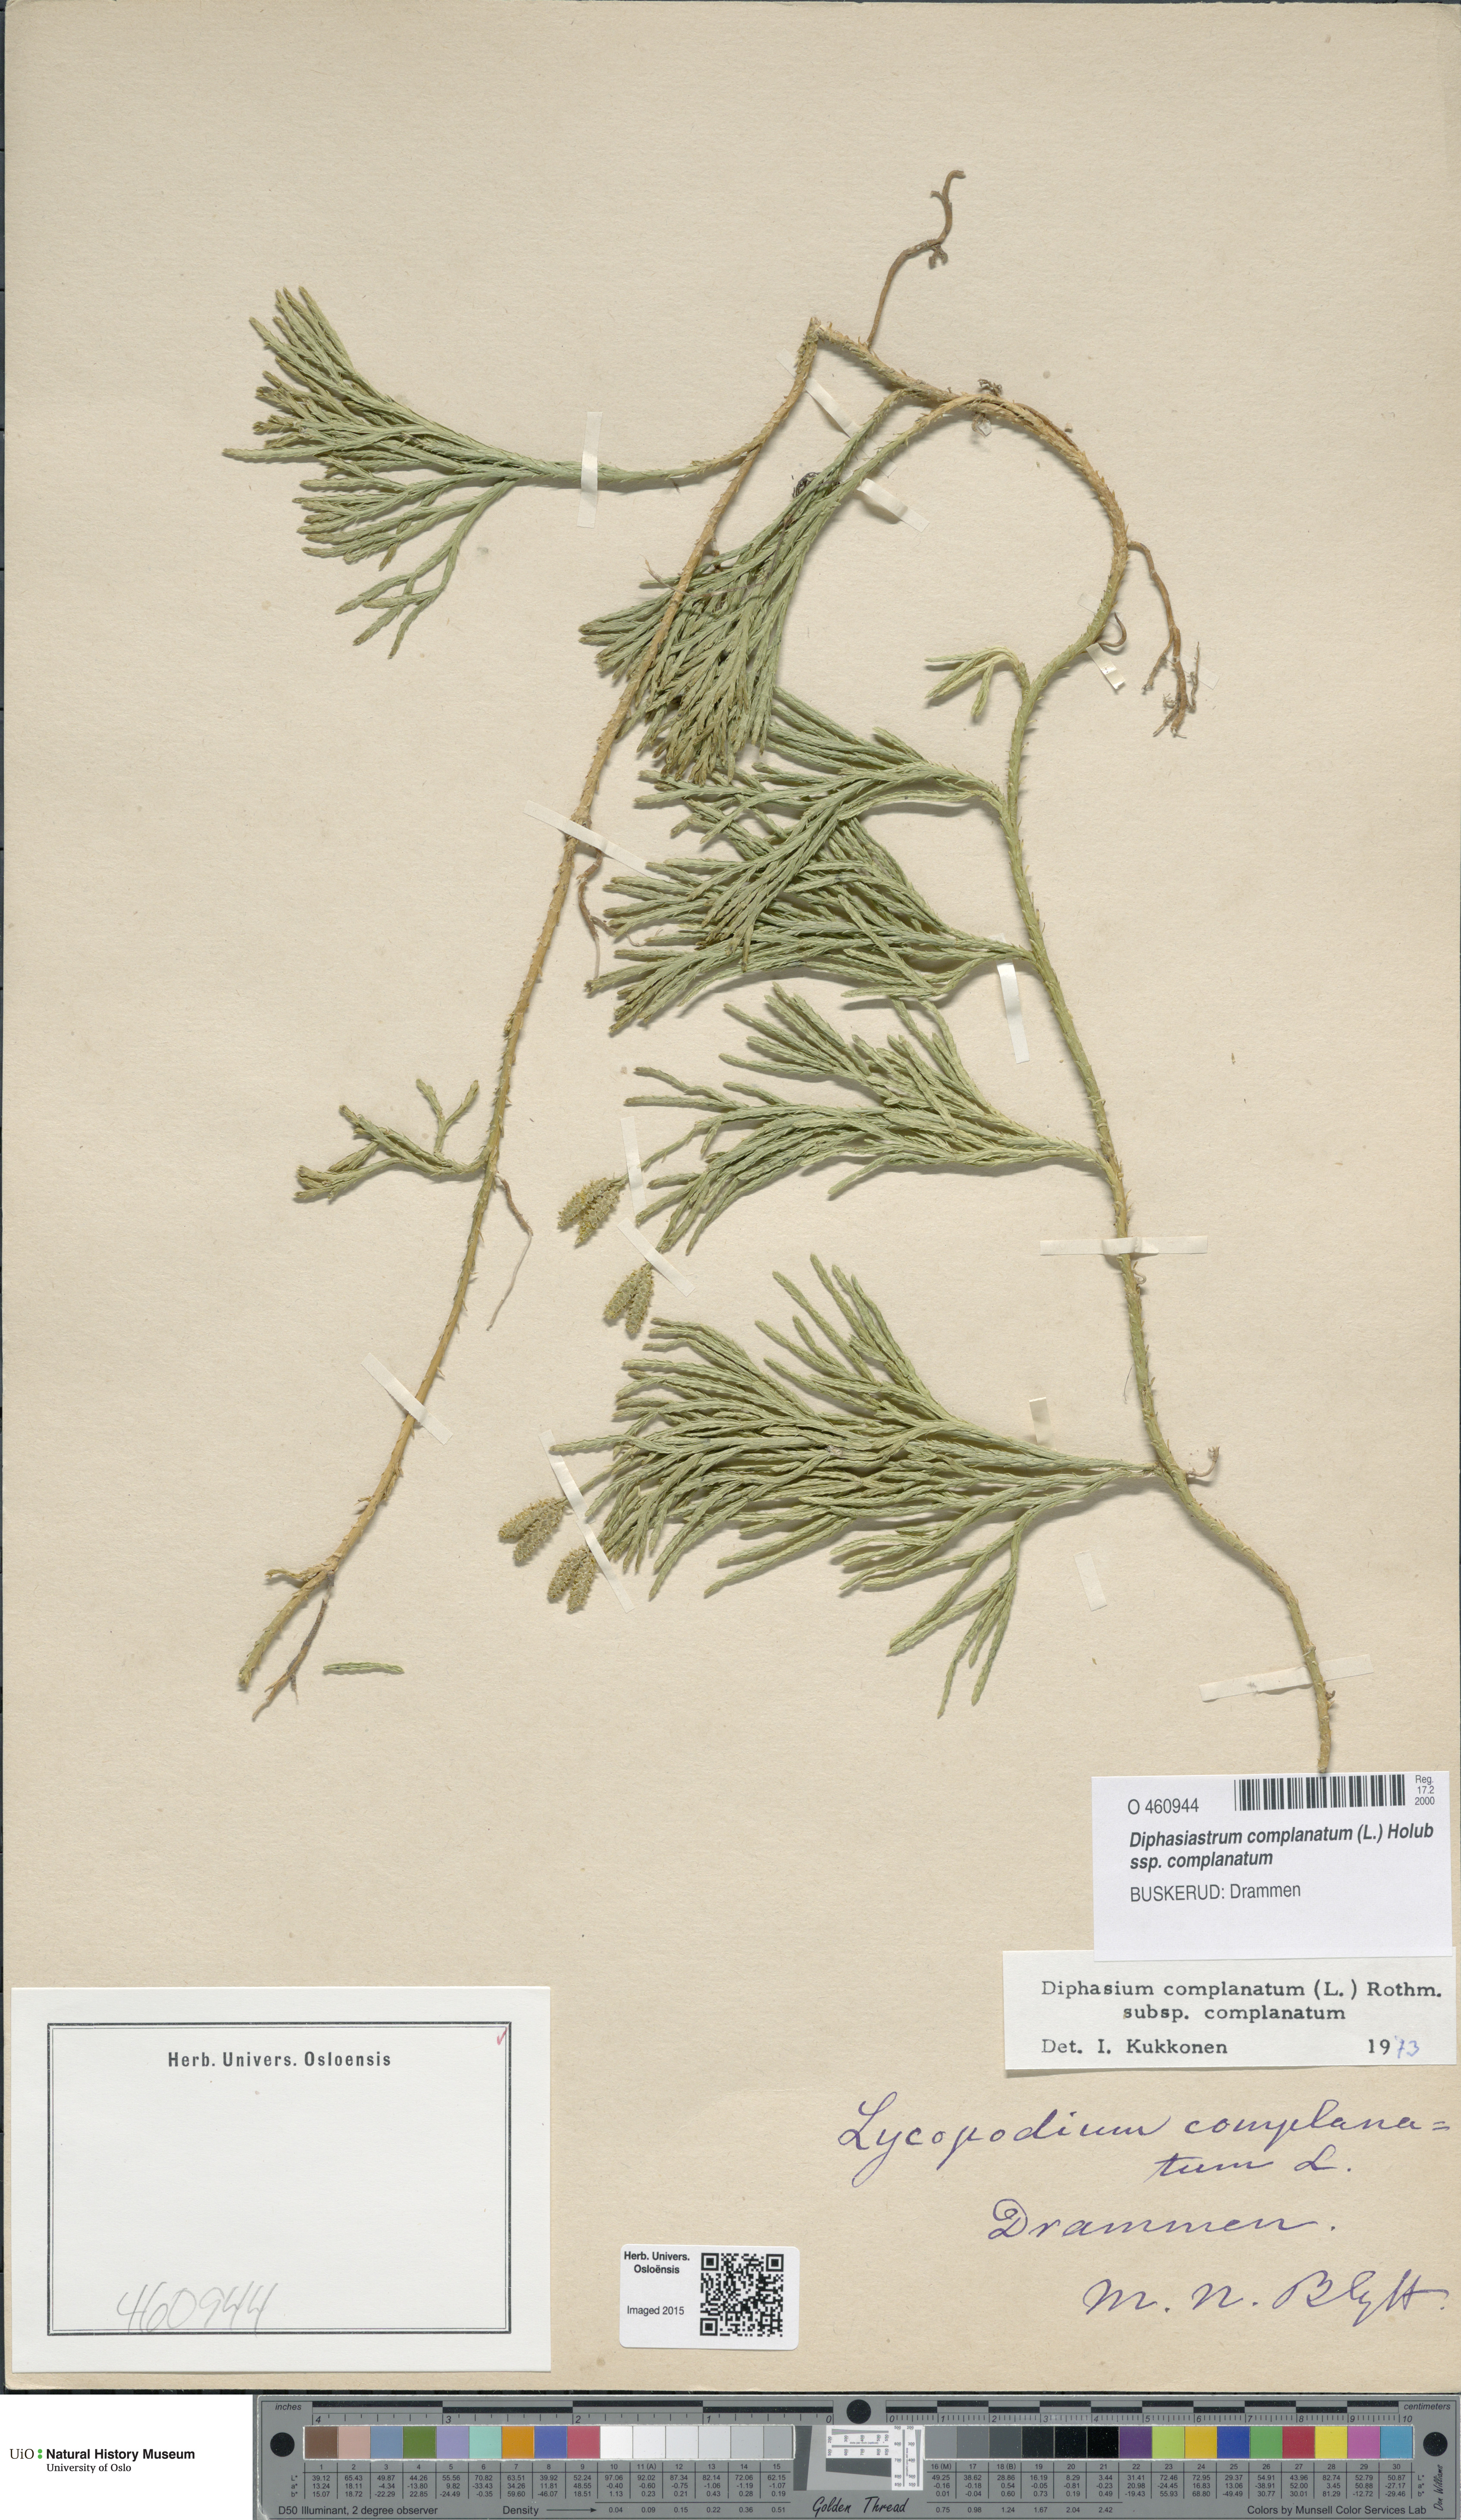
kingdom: Plantae
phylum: Tracheophyta
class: Lycopodiopsida
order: Lycopodiales
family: Lycopodiaceae
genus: Diphasiastrum
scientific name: Diphasiastrum complanatum
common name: Northern running-pine
